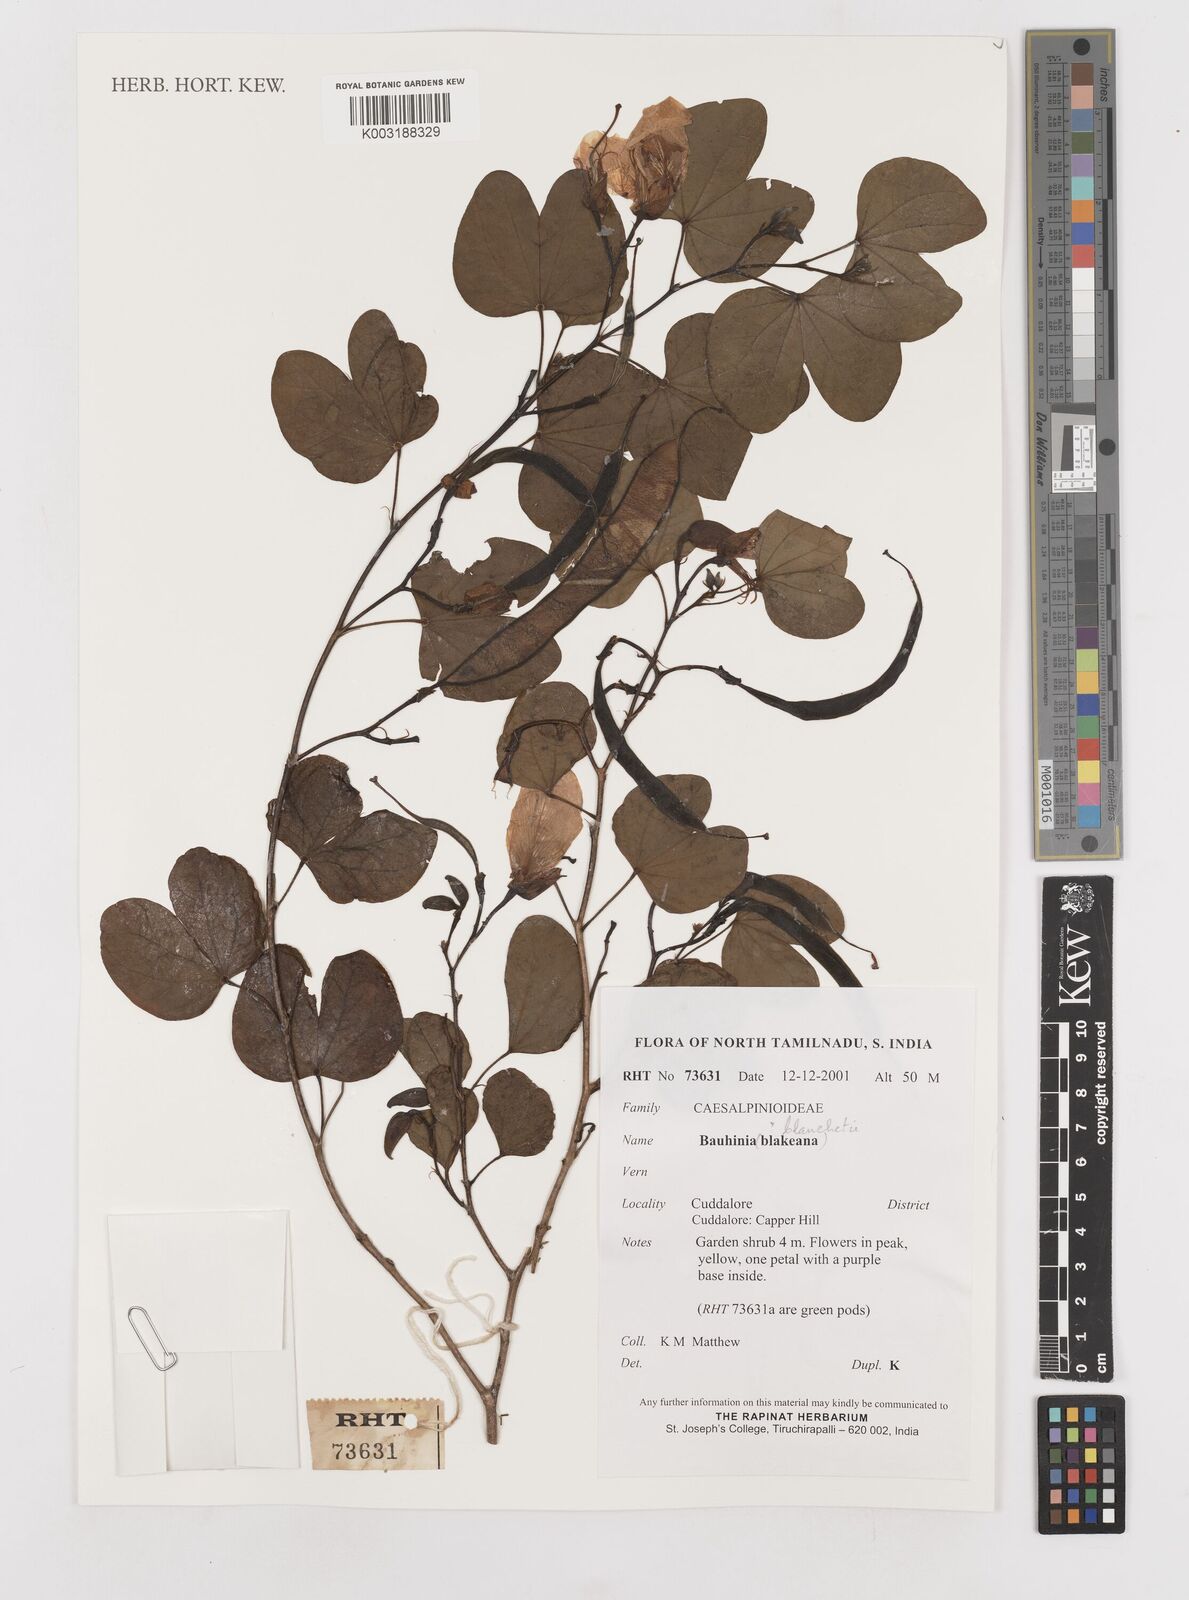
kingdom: Plantae
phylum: Tracheophyta
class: Magnoliopsida
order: Fabales
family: Fabaceae
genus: Bauhinia
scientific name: Bauhinia
